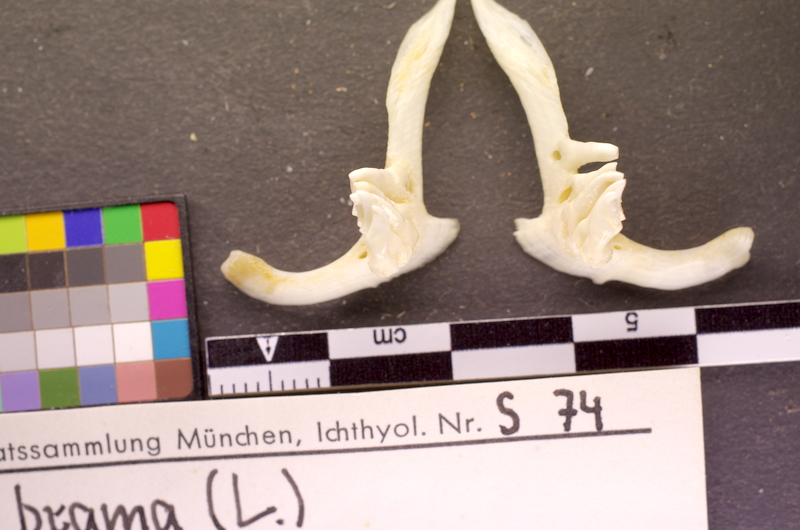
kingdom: Animalia
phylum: Chordata
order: Cypriniformes
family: Cyprinidae
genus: Abramis
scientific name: Abramis brama
